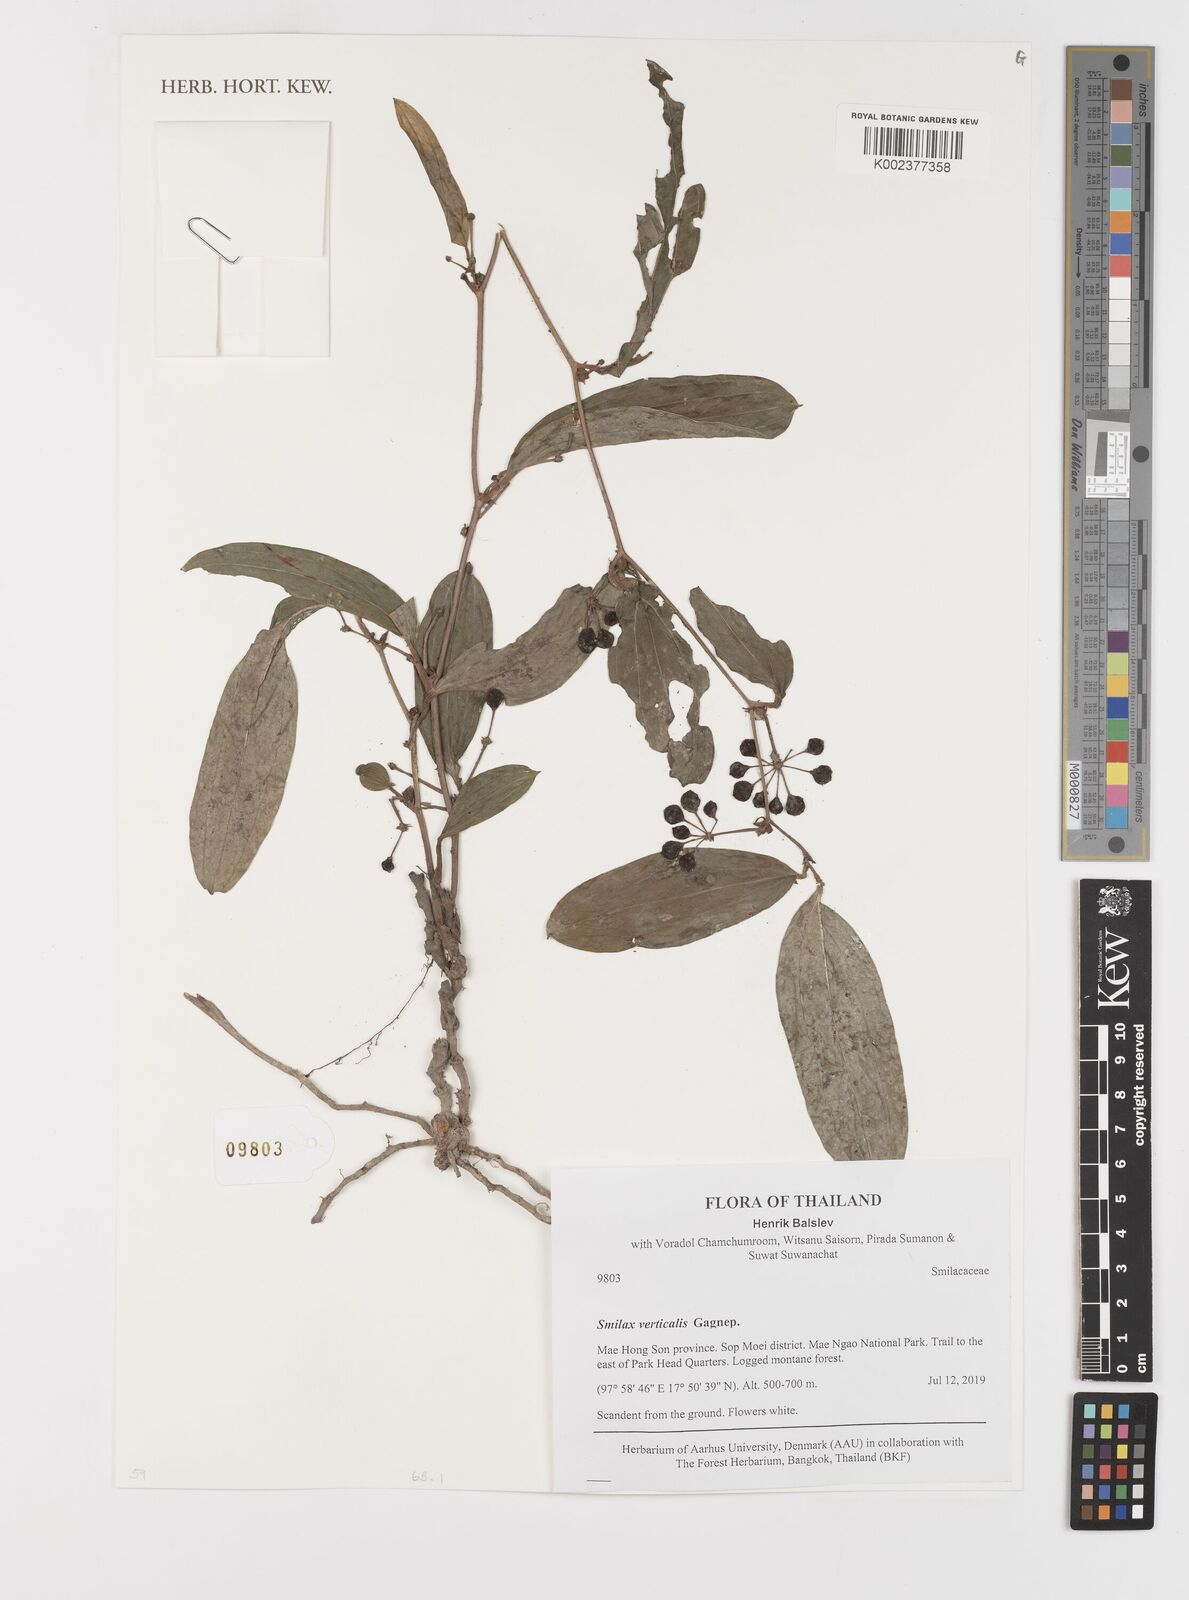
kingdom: Plantae
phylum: Tracheophyta
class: Liliopsida
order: Liliales
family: Smilacaceae
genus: Smilax
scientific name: Smilax verticalis
